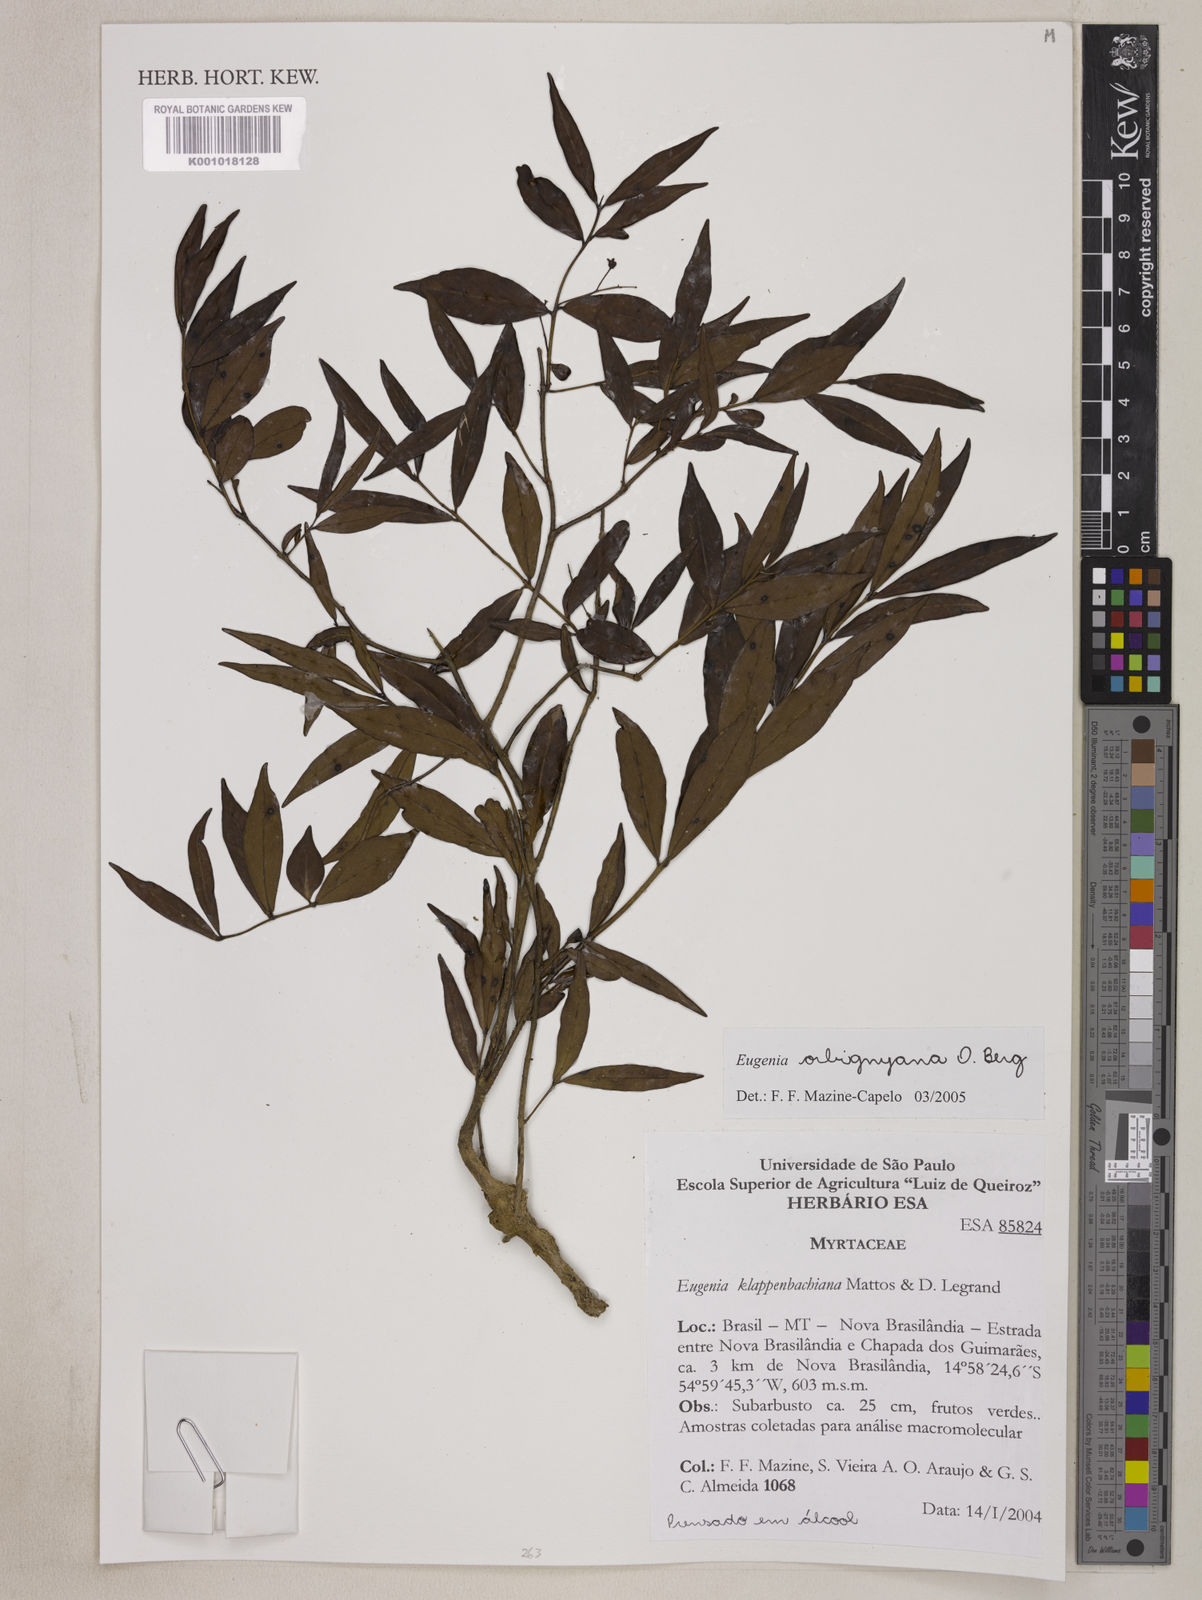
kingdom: Plantae
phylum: Tracheophyta
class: Magnoliopsida
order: Myrtales
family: Myrtaceae
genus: Eugenia
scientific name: Eugenia orbignyana
